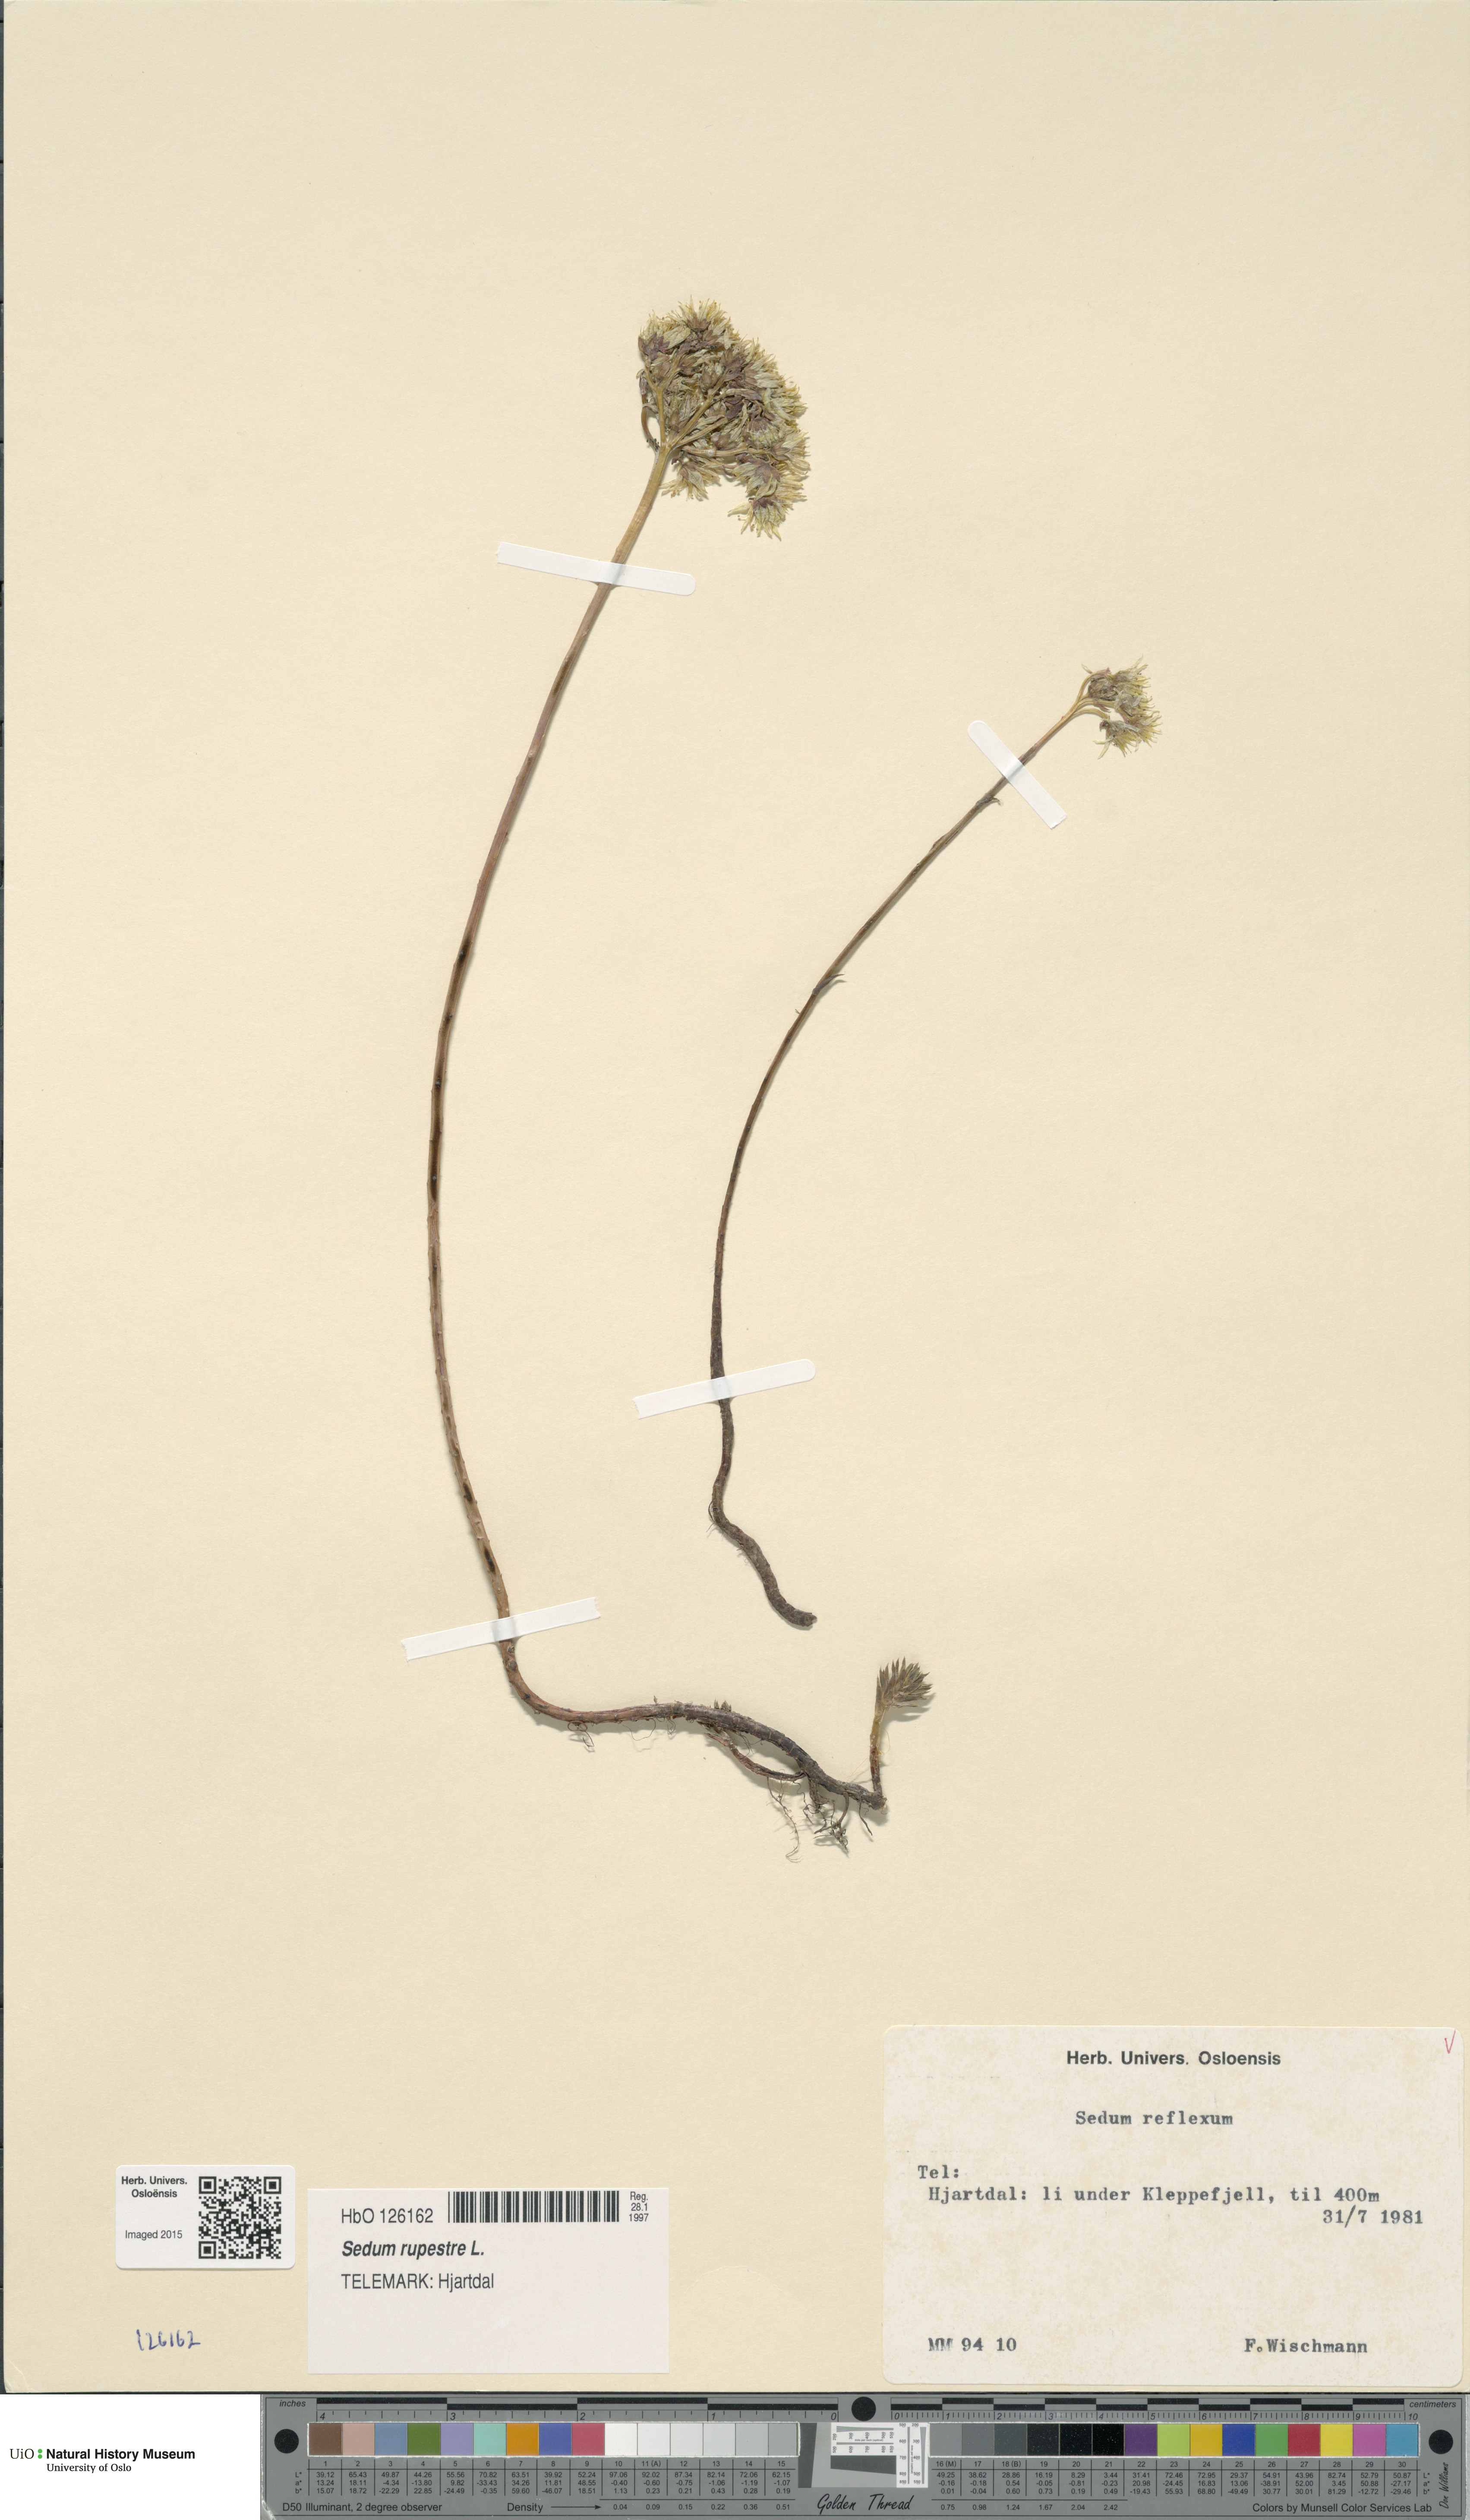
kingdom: Plantae
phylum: Tracheophyta
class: Magnoliopsida
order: Saxifragales
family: Crassulaceae
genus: Petrosedum
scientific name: Petrosedum rupestre
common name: Jenny's stonecrop
